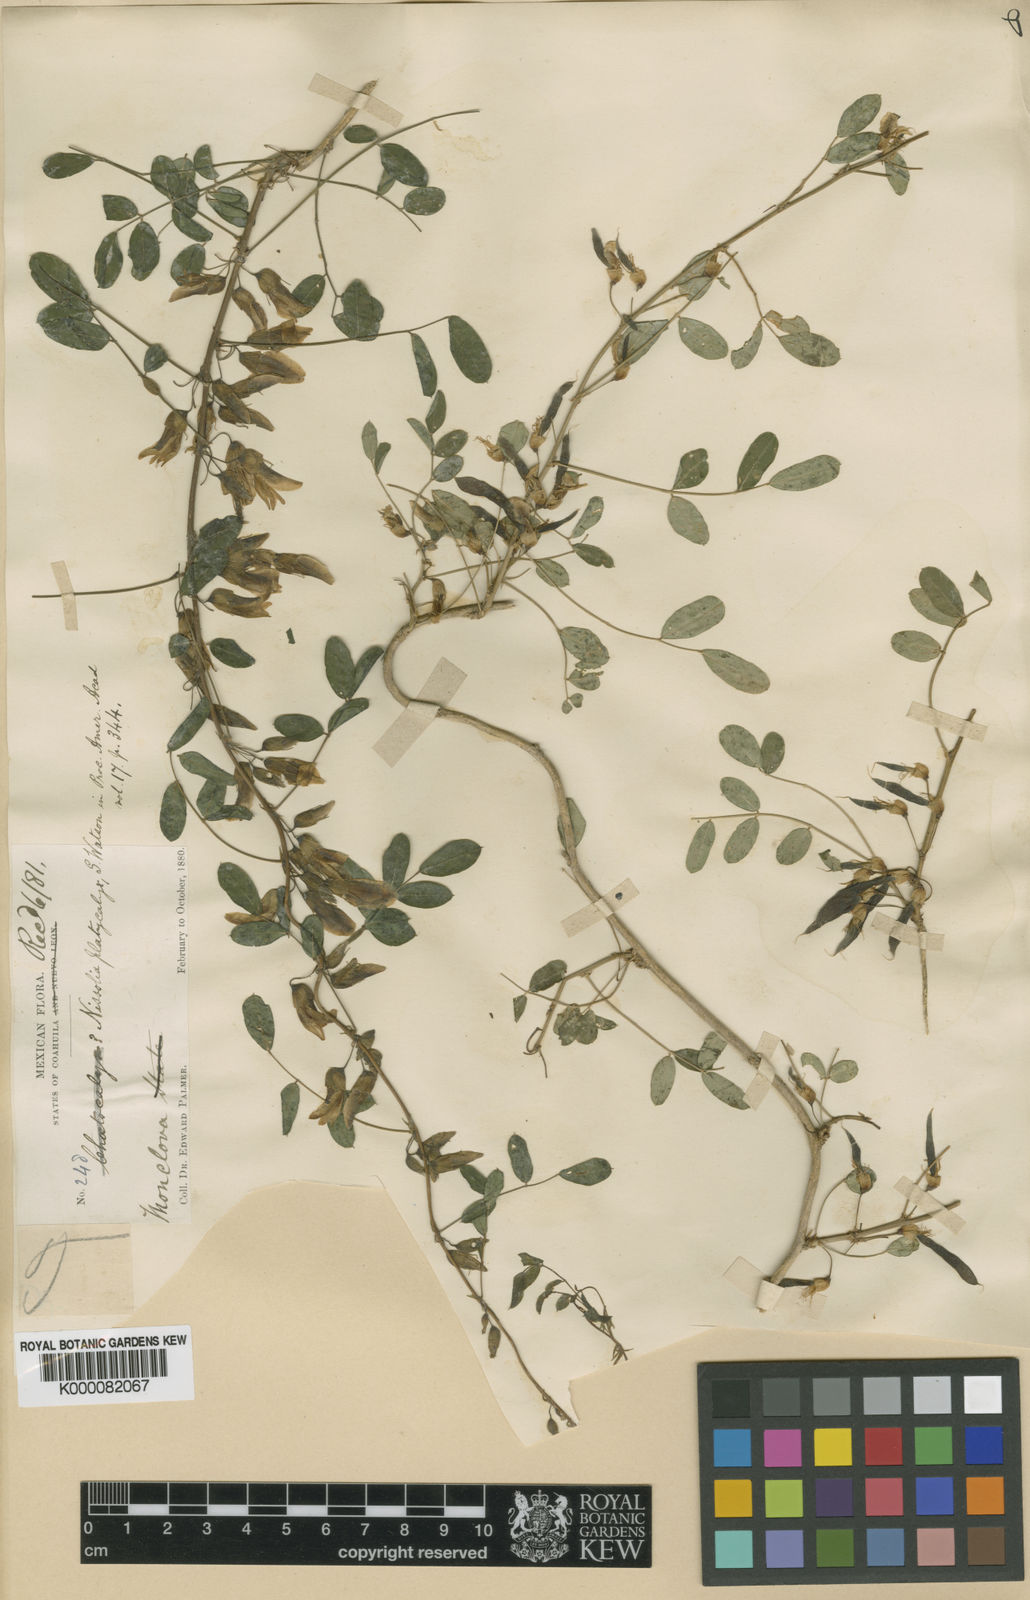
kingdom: Plantae
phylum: Tracheophyta
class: Magnoliopsida
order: Fabales
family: Fabaceae
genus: Nissolia
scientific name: Nissolia platycalyx
